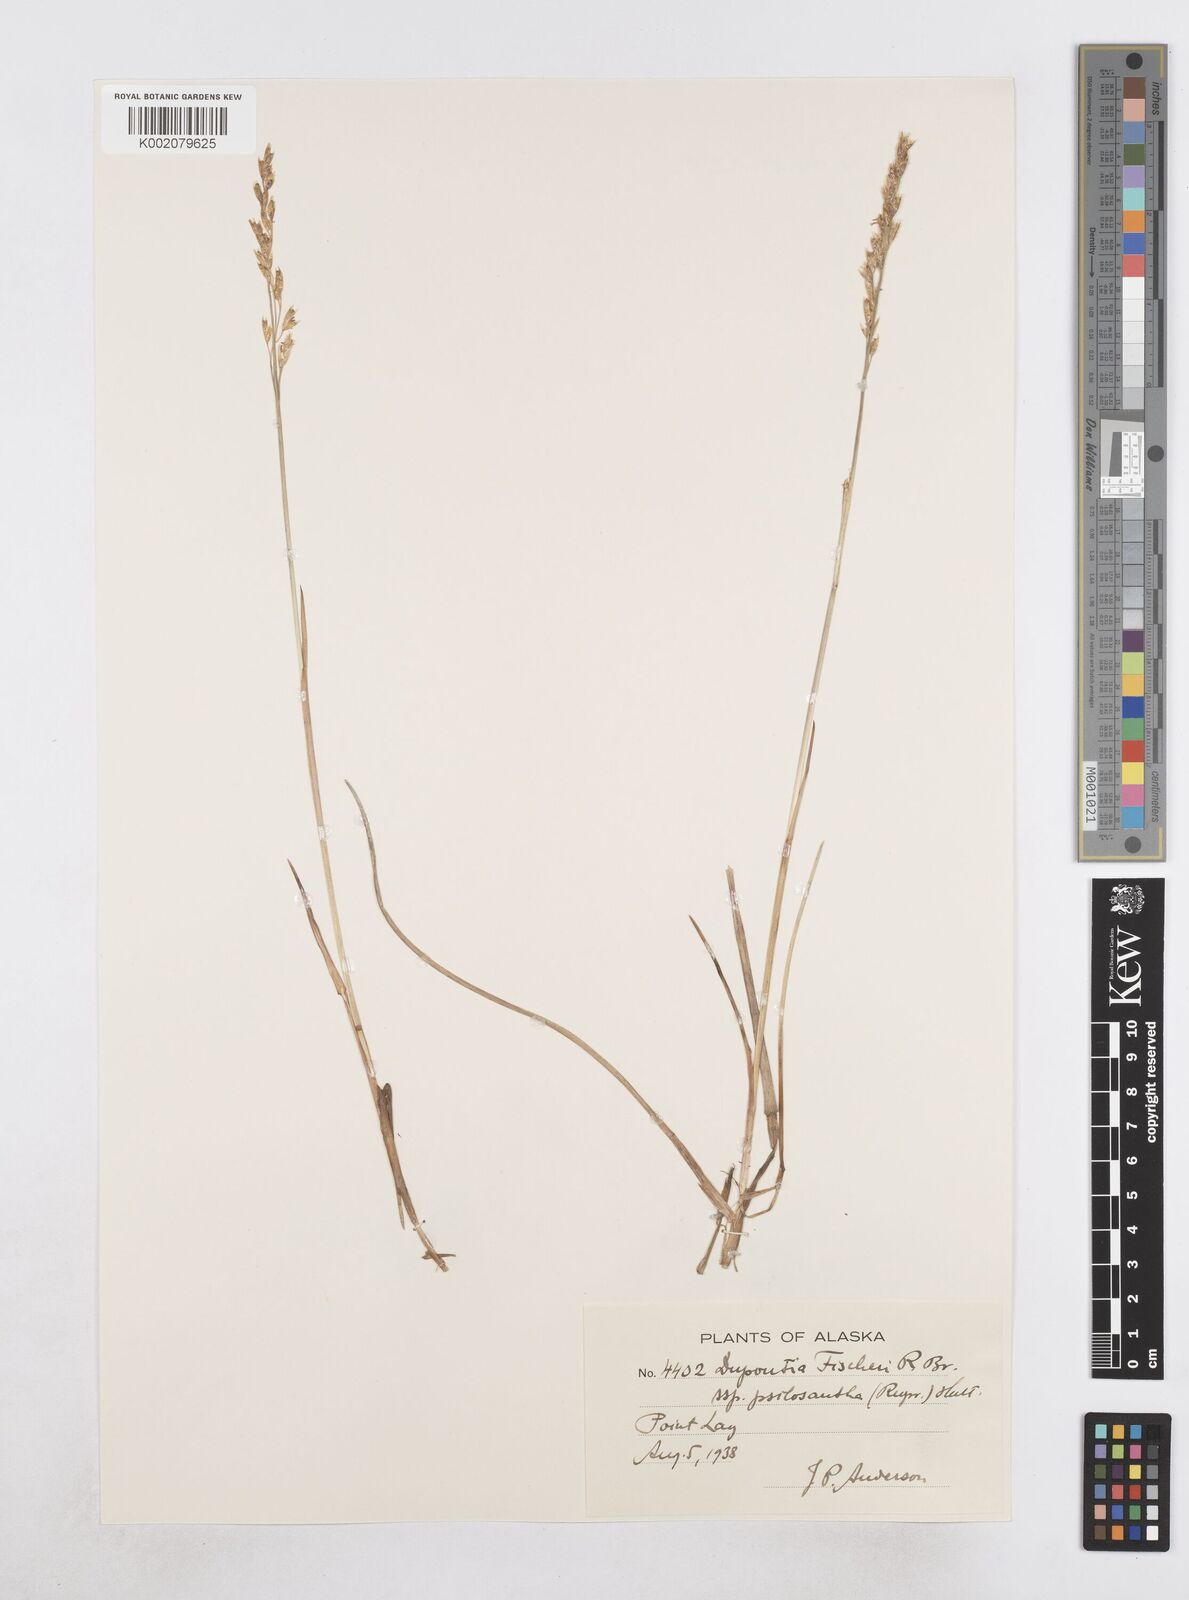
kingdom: Plantae
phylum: Tracheophyta
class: Liliopsida
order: Poales
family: Poaceae
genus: Dupontia
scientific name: Dupontia fisheri
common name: Tundra grass
